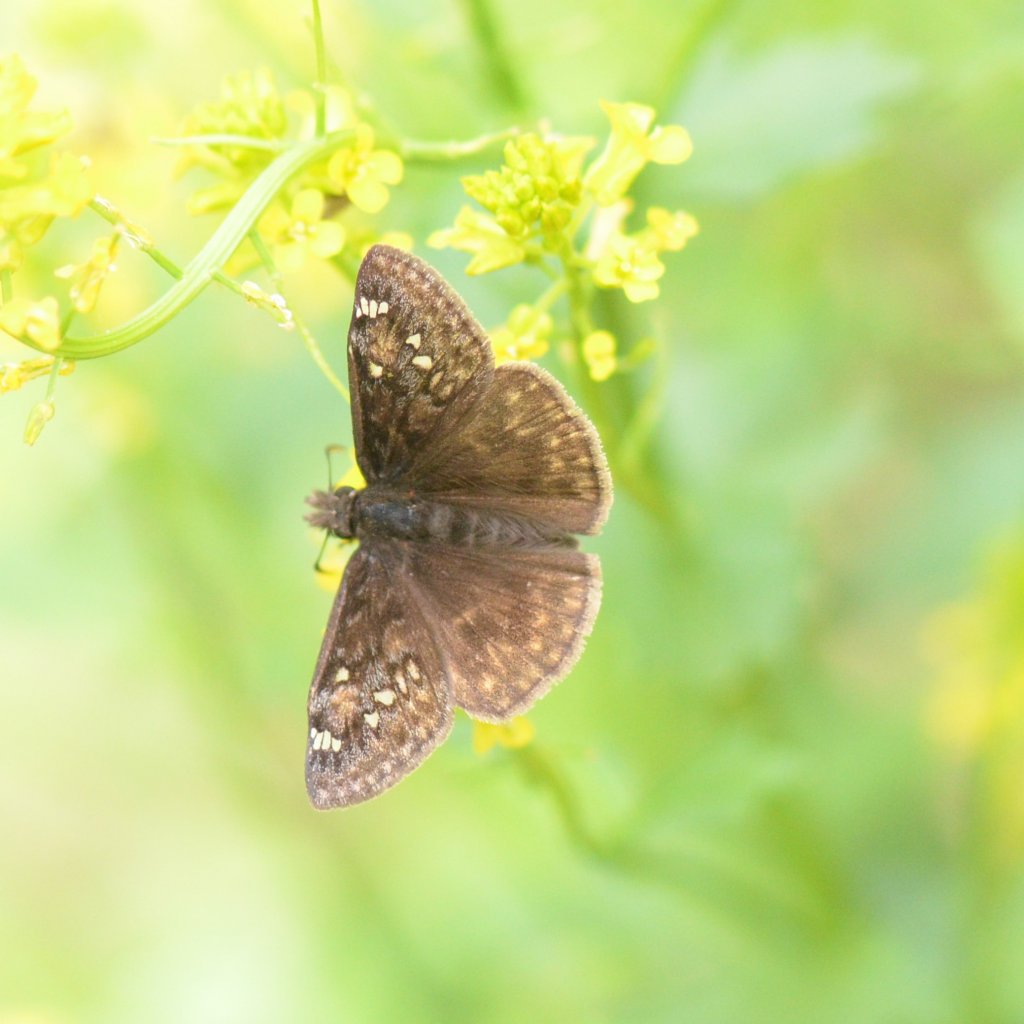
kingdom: Animalia
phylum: Arthropoda
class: Insecta
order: Lepidoptera
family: Hesperiidae
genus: Gesta
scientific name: Gesta
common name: Juvenal's Duskywing
